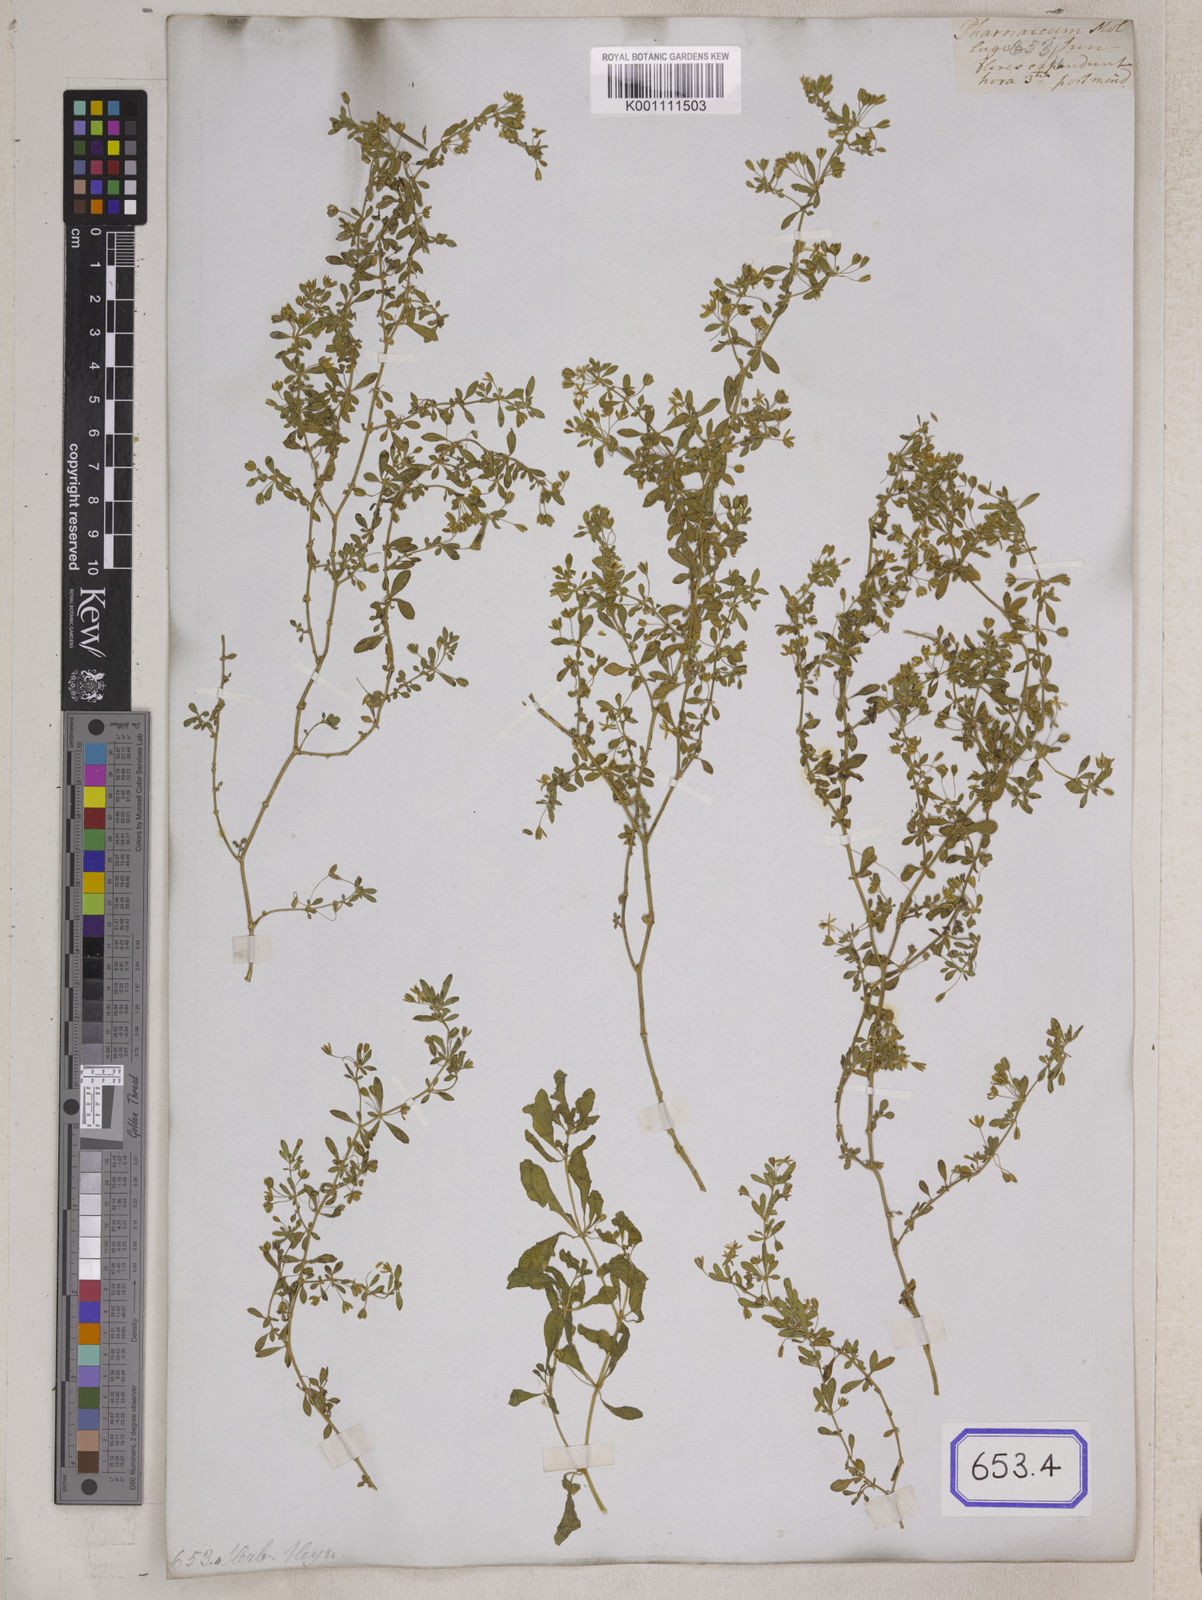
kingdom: Plantae
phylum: Tracheophyta
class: Magnoliopsida
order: Caryophyllales
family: Molluginaceae
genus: Glinus
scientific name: Glinus oppositifolius
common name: Slender carpetweed
